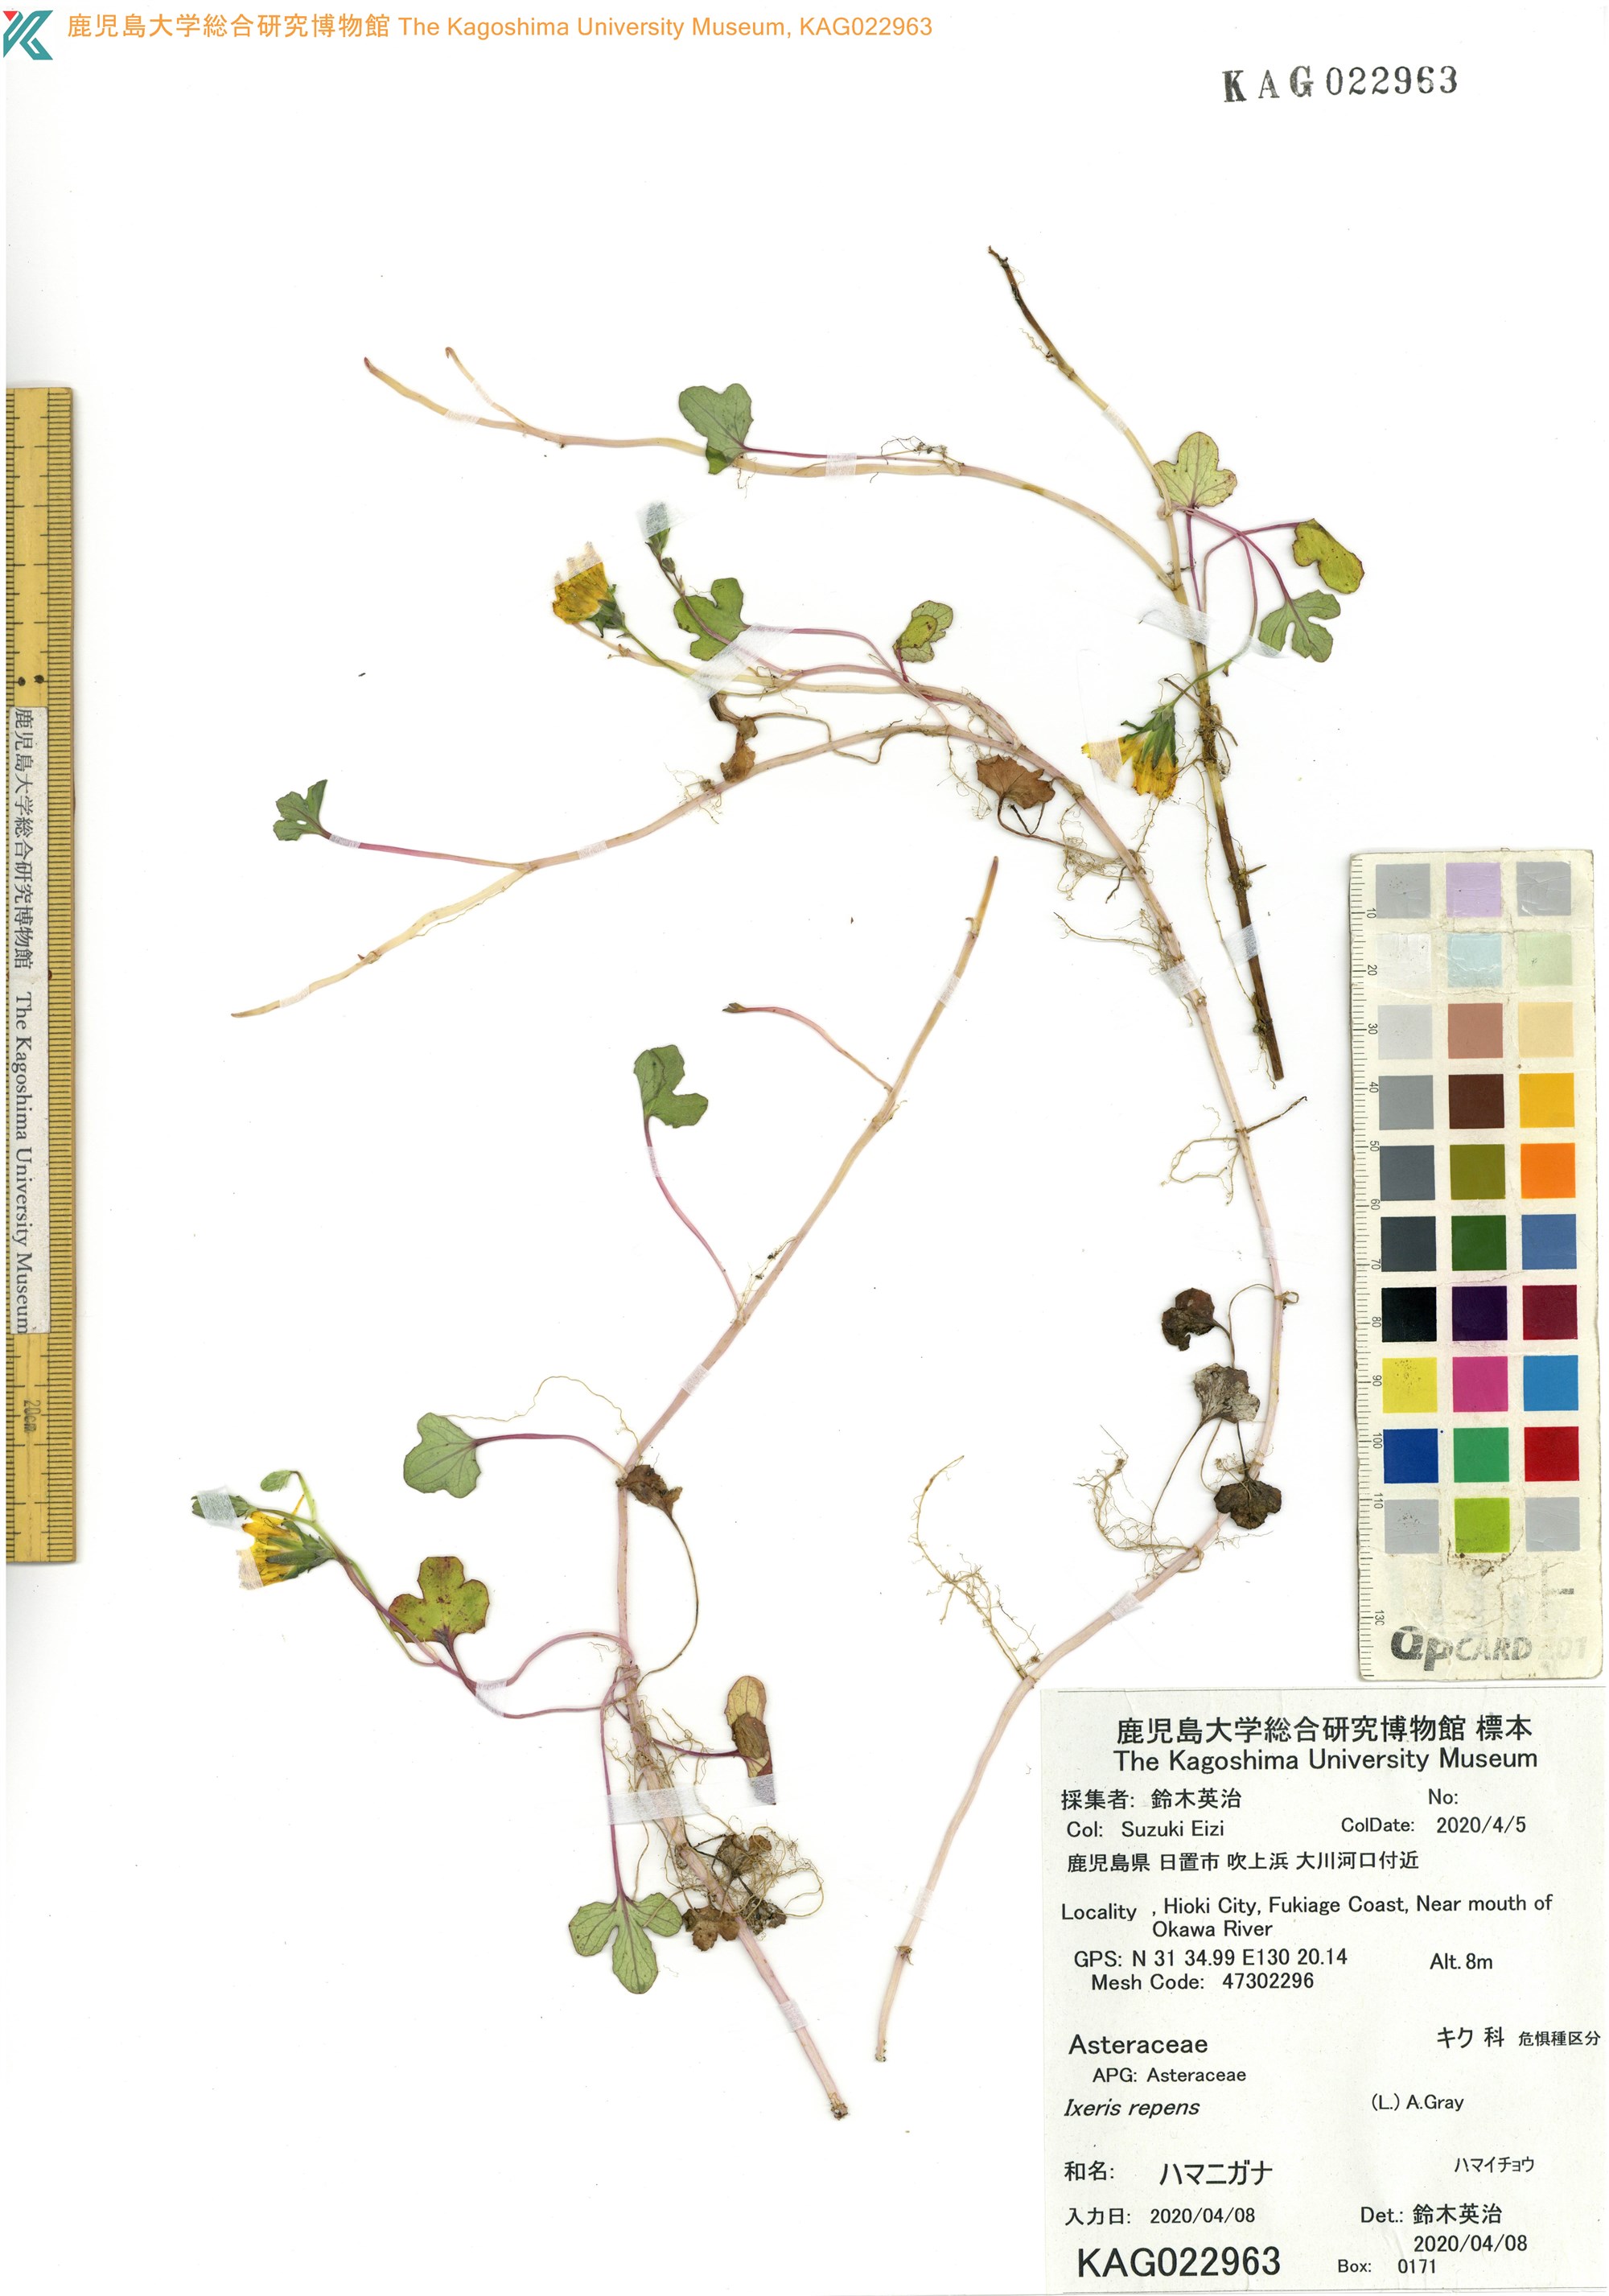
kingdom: Plantae
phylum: Tracheophyta
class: Magnoliopsida
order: Asterales
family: Asteraceae
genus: Ixeris
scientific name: Ixeris repens
